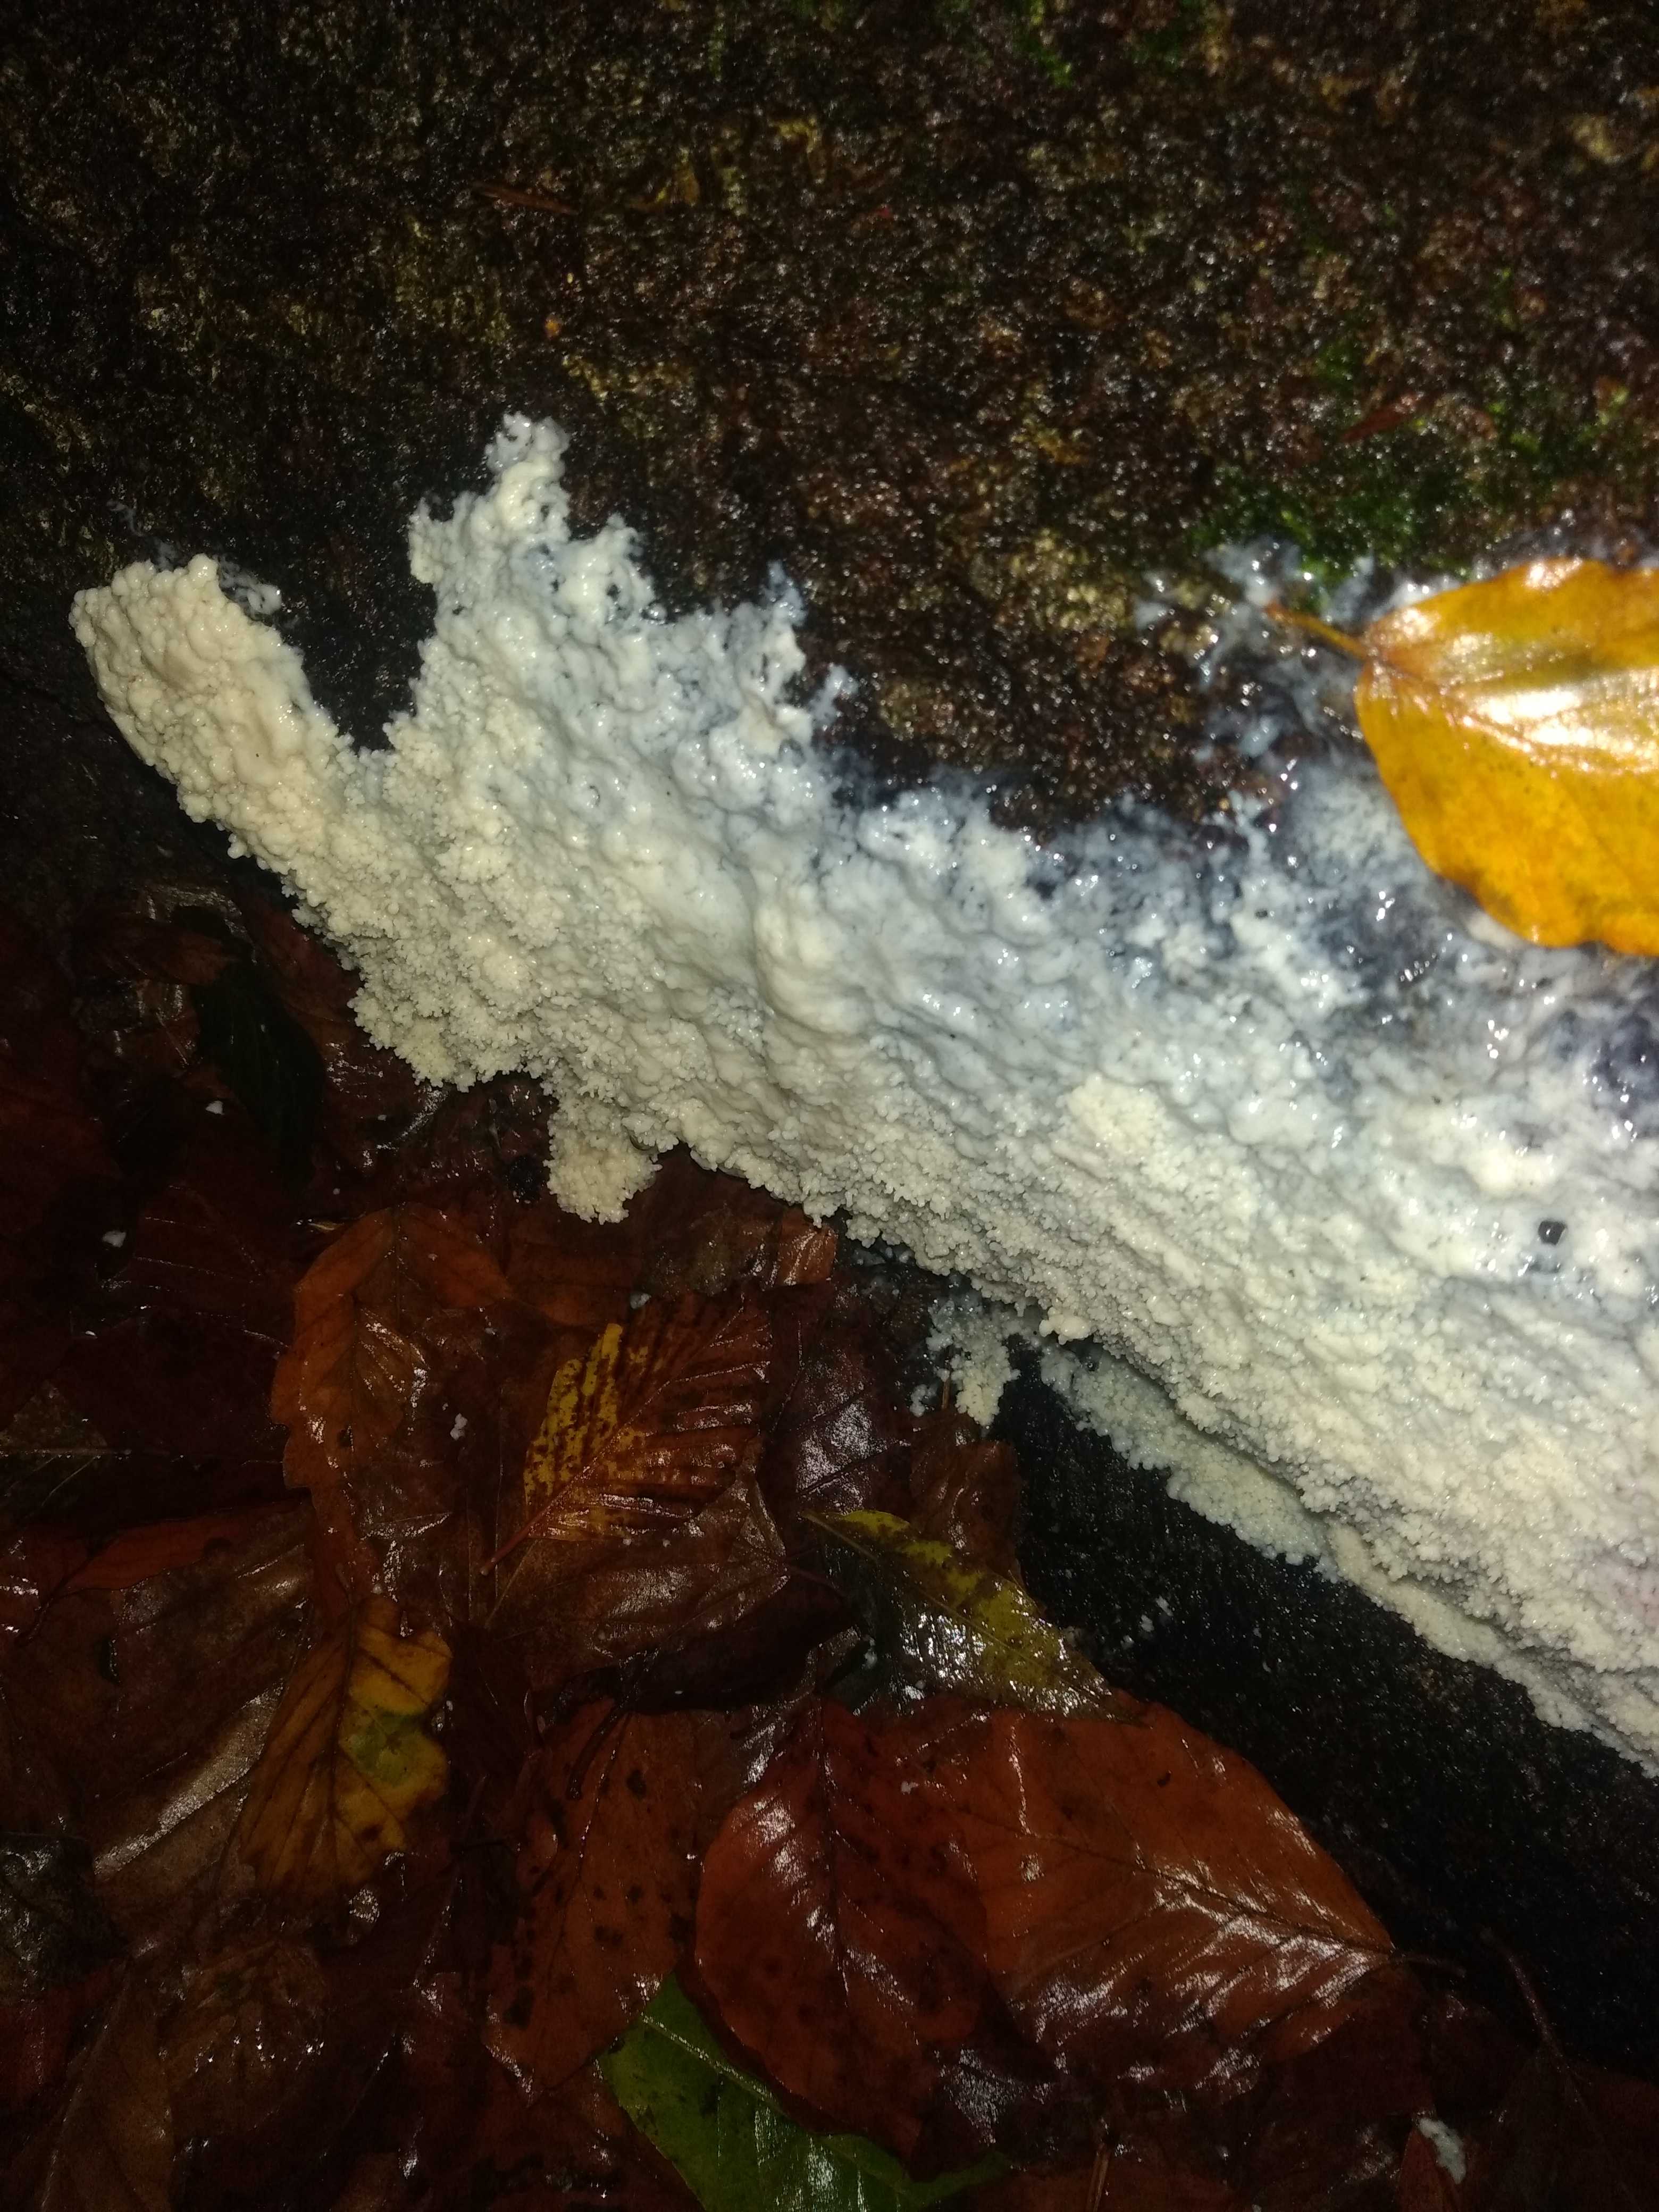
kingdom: Protozoa
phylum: Mycetozoa
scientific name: Mycetozoa
